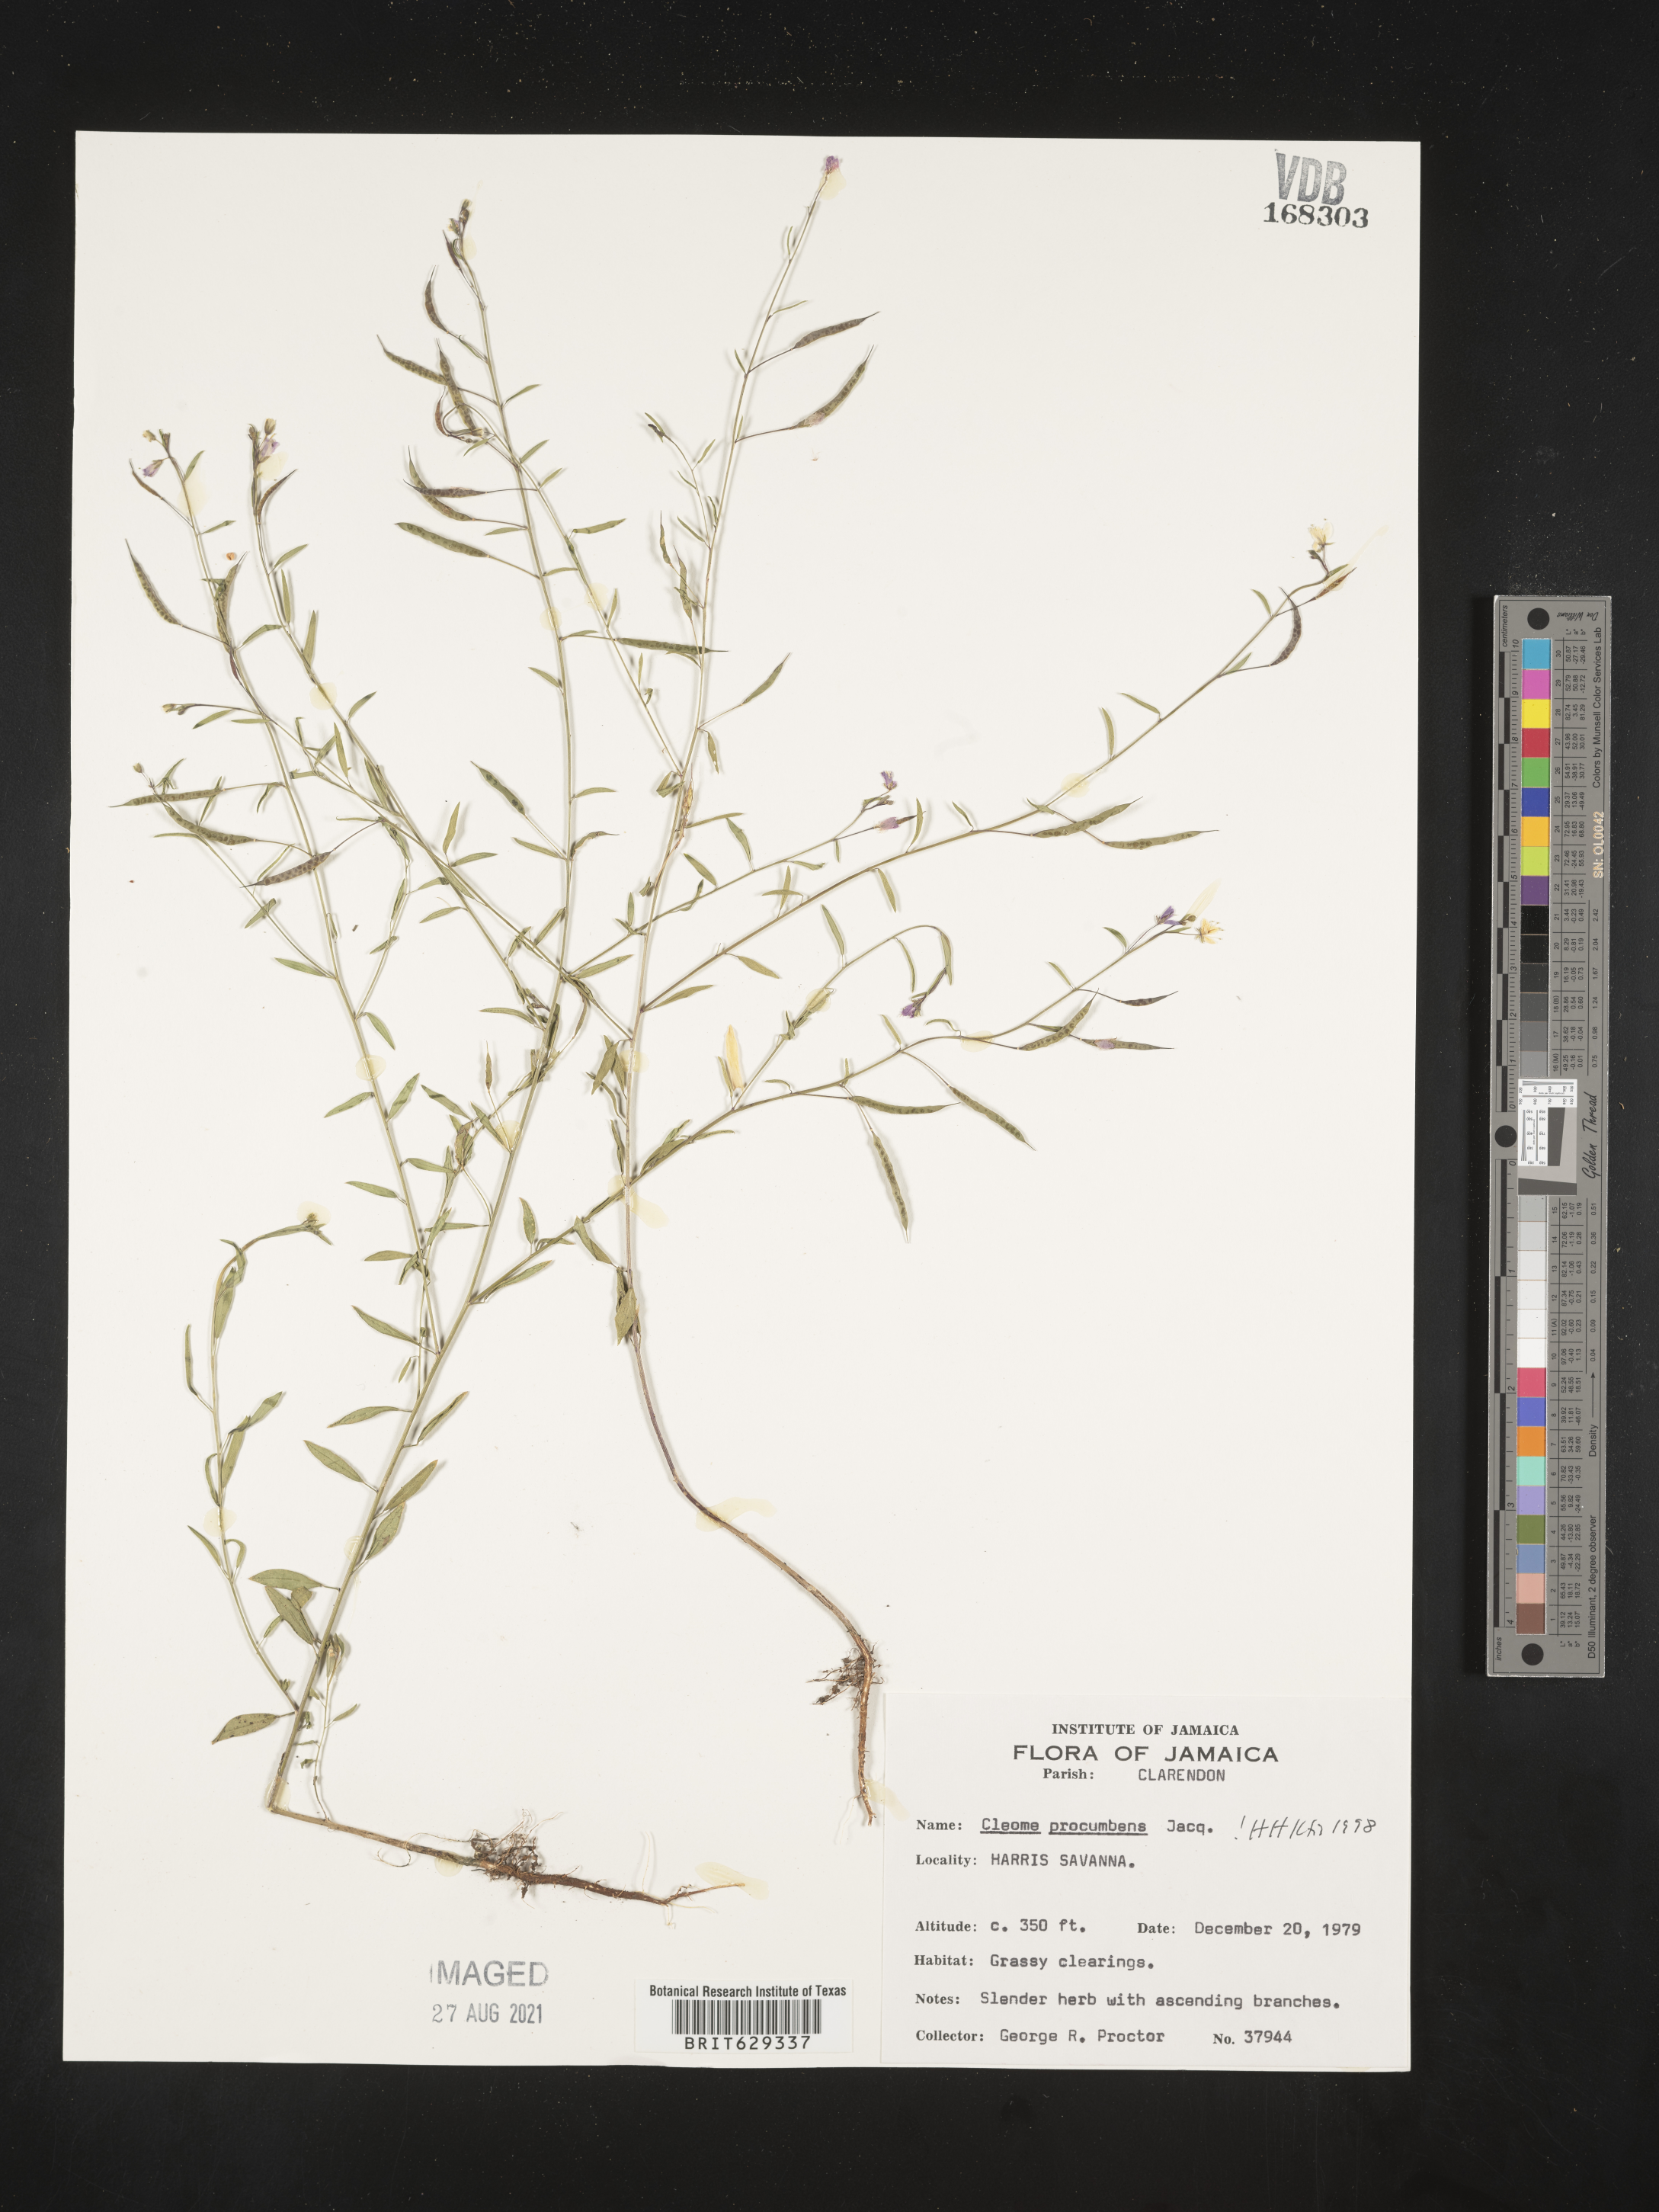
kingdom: Plantae
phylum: Tracheophyta
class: Magnoliopsida
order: Brassicales
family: Cleomaceae
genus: Physostemon
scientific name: Physostemon procumbens
